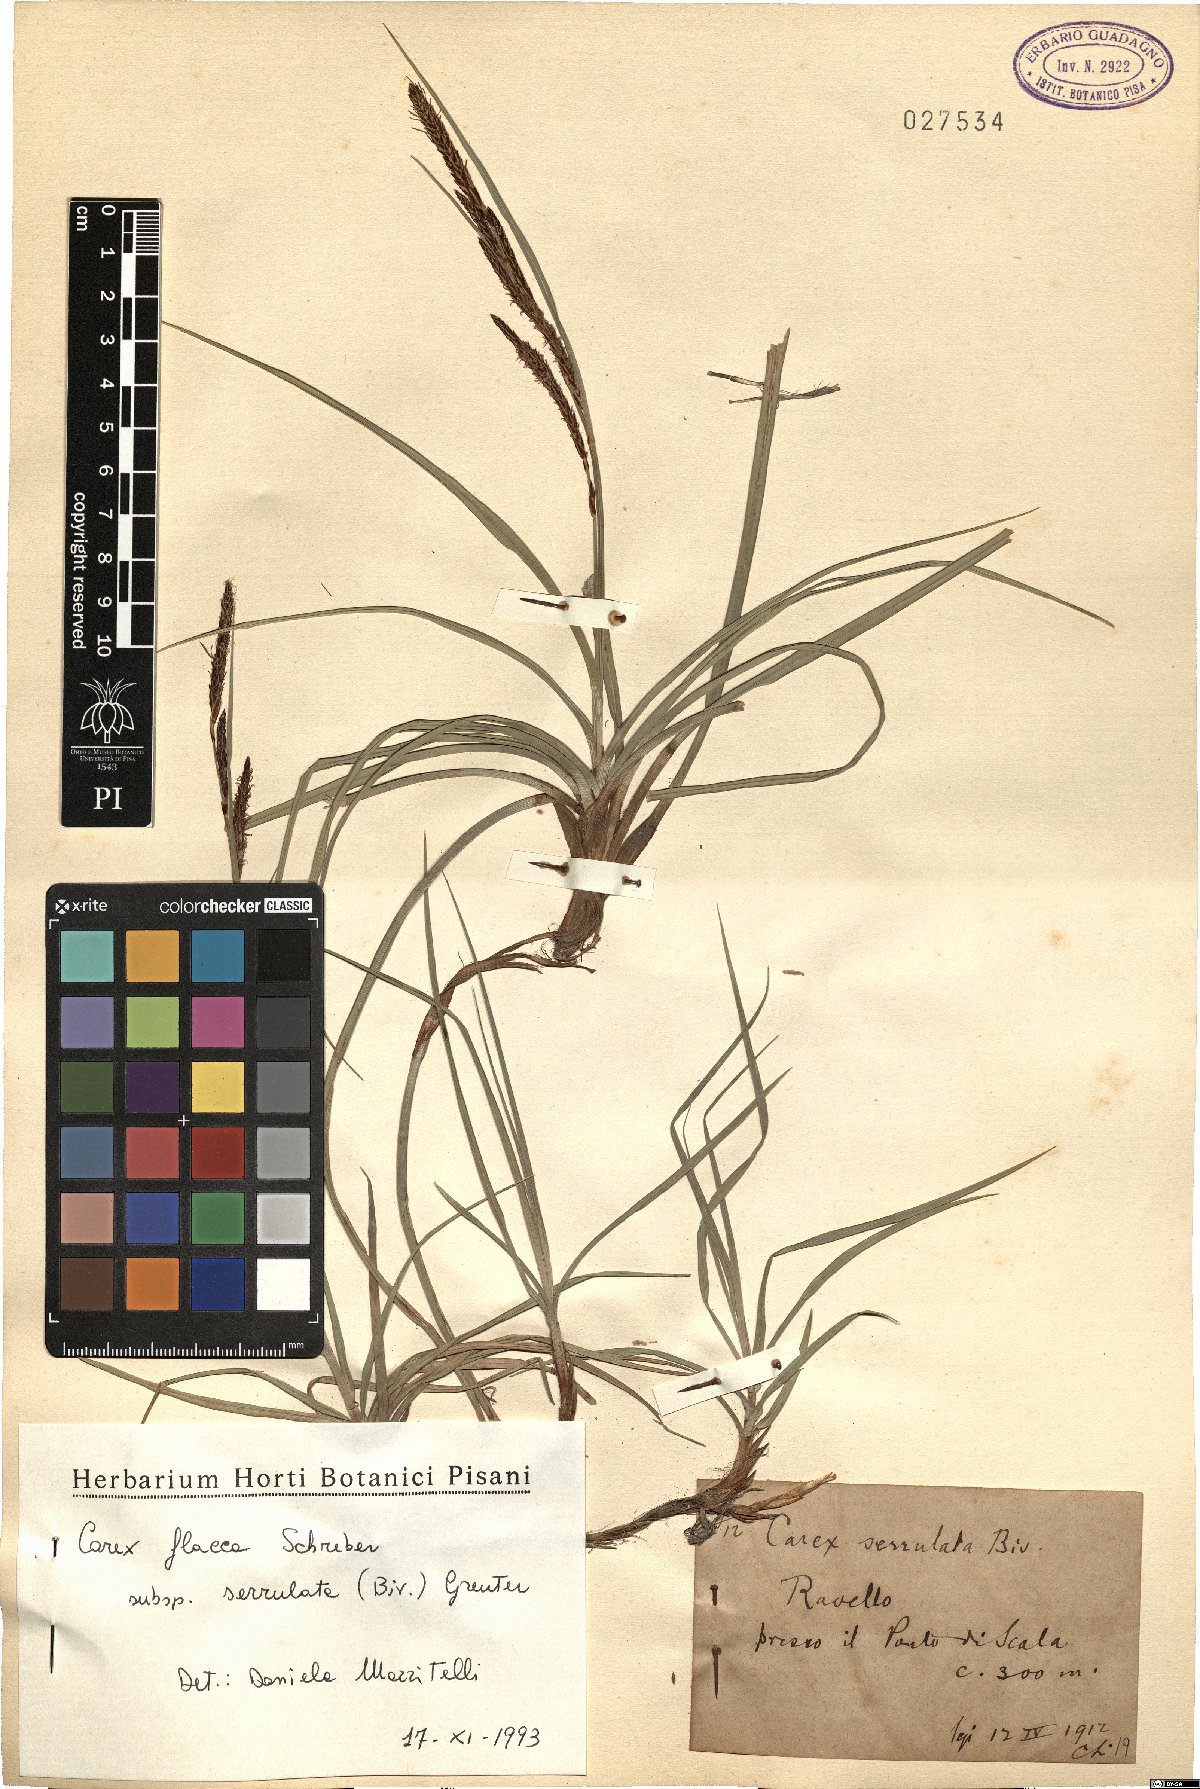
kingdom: Plantae
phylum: Tracheophyta
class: Liliopsida
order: Poales
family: Cyperaceae
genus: Carex
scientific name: Carex flacca
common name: Glaucous sedge
